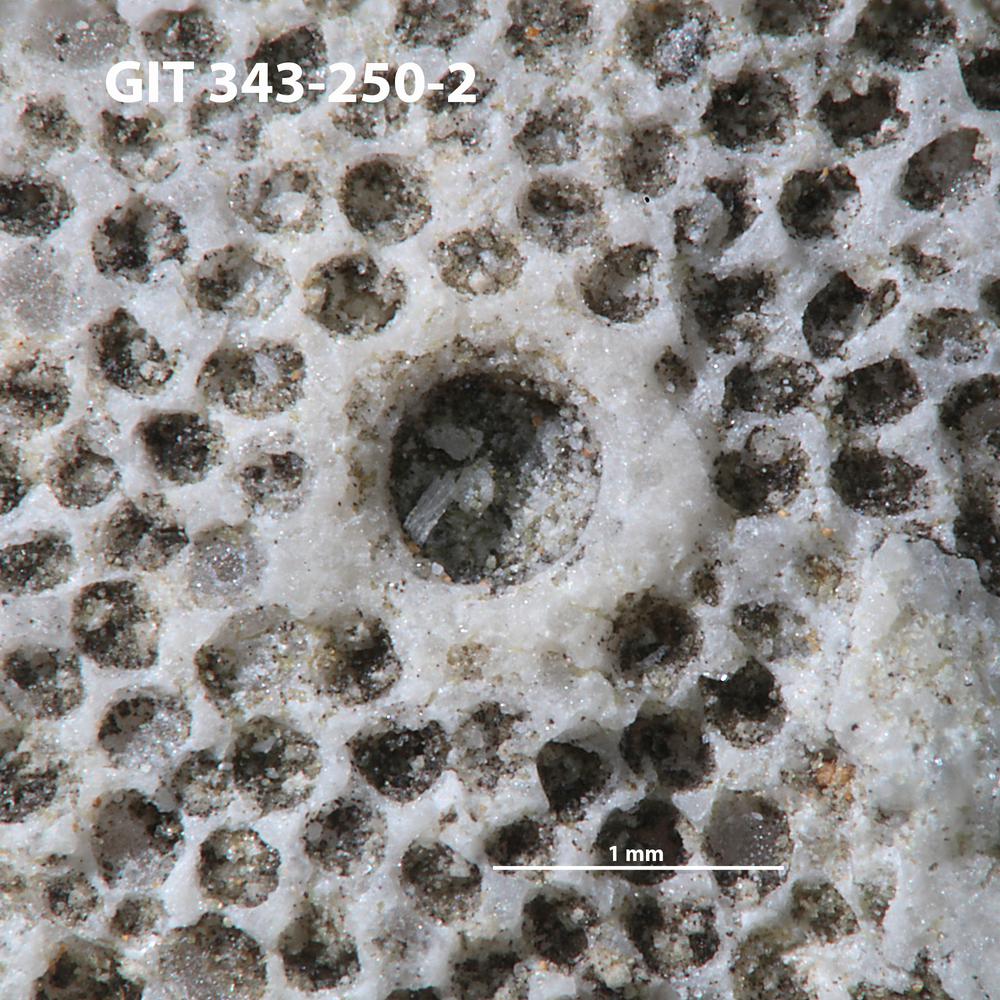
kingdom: Animalia
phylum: Annelida
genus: Anoigmaichnus
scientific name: Anoigmaichnus
